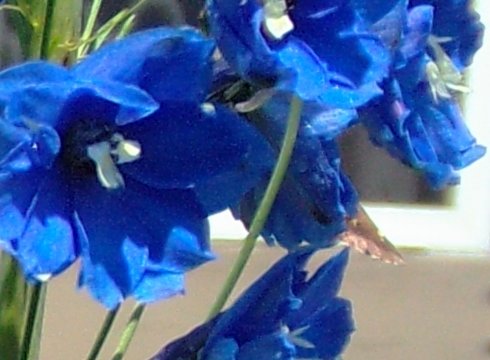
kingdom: Animalia
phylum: Arthropoda
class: Insecta
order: Lepidoptera
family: Hesperiidae
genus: Autochton
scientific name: Autochton
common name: Northern Cloudywing
